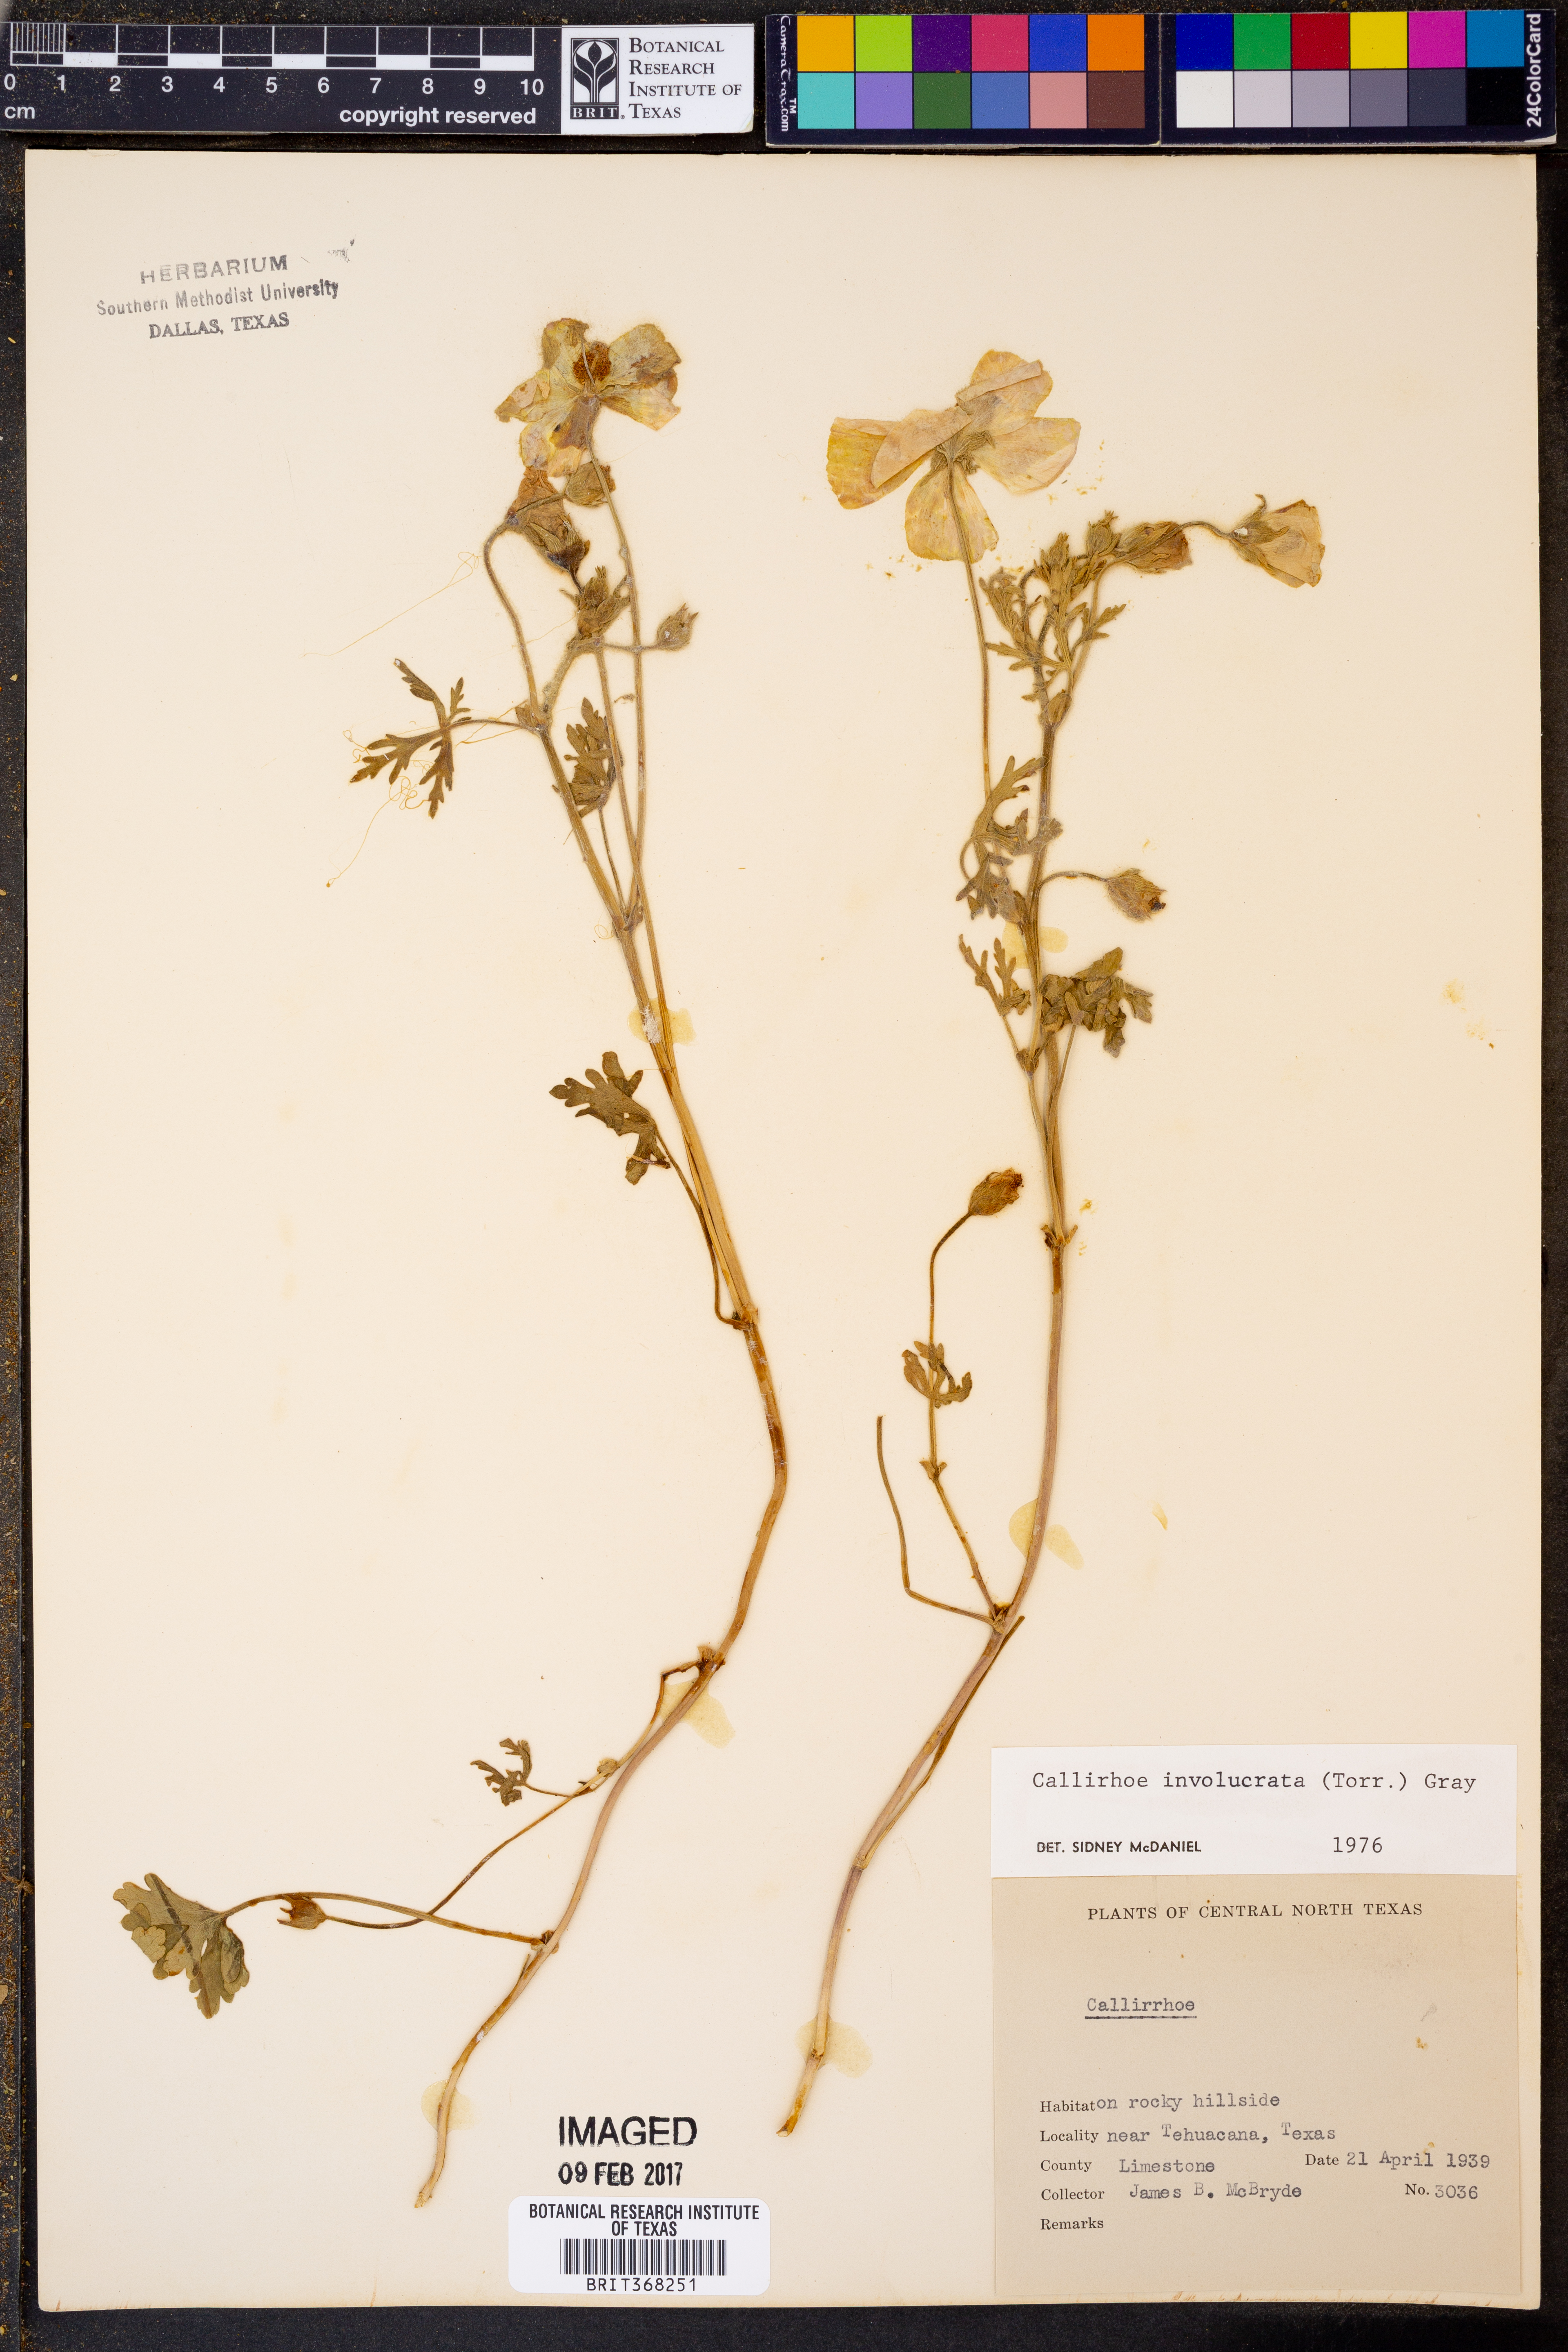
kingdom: Plantae
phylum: Tracheophyta
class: Magnoliopsida
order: Malvales
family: Malvaceae
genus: Callirhoe
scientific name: Callirhoe involucrata
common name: Purple poppy-mallow
